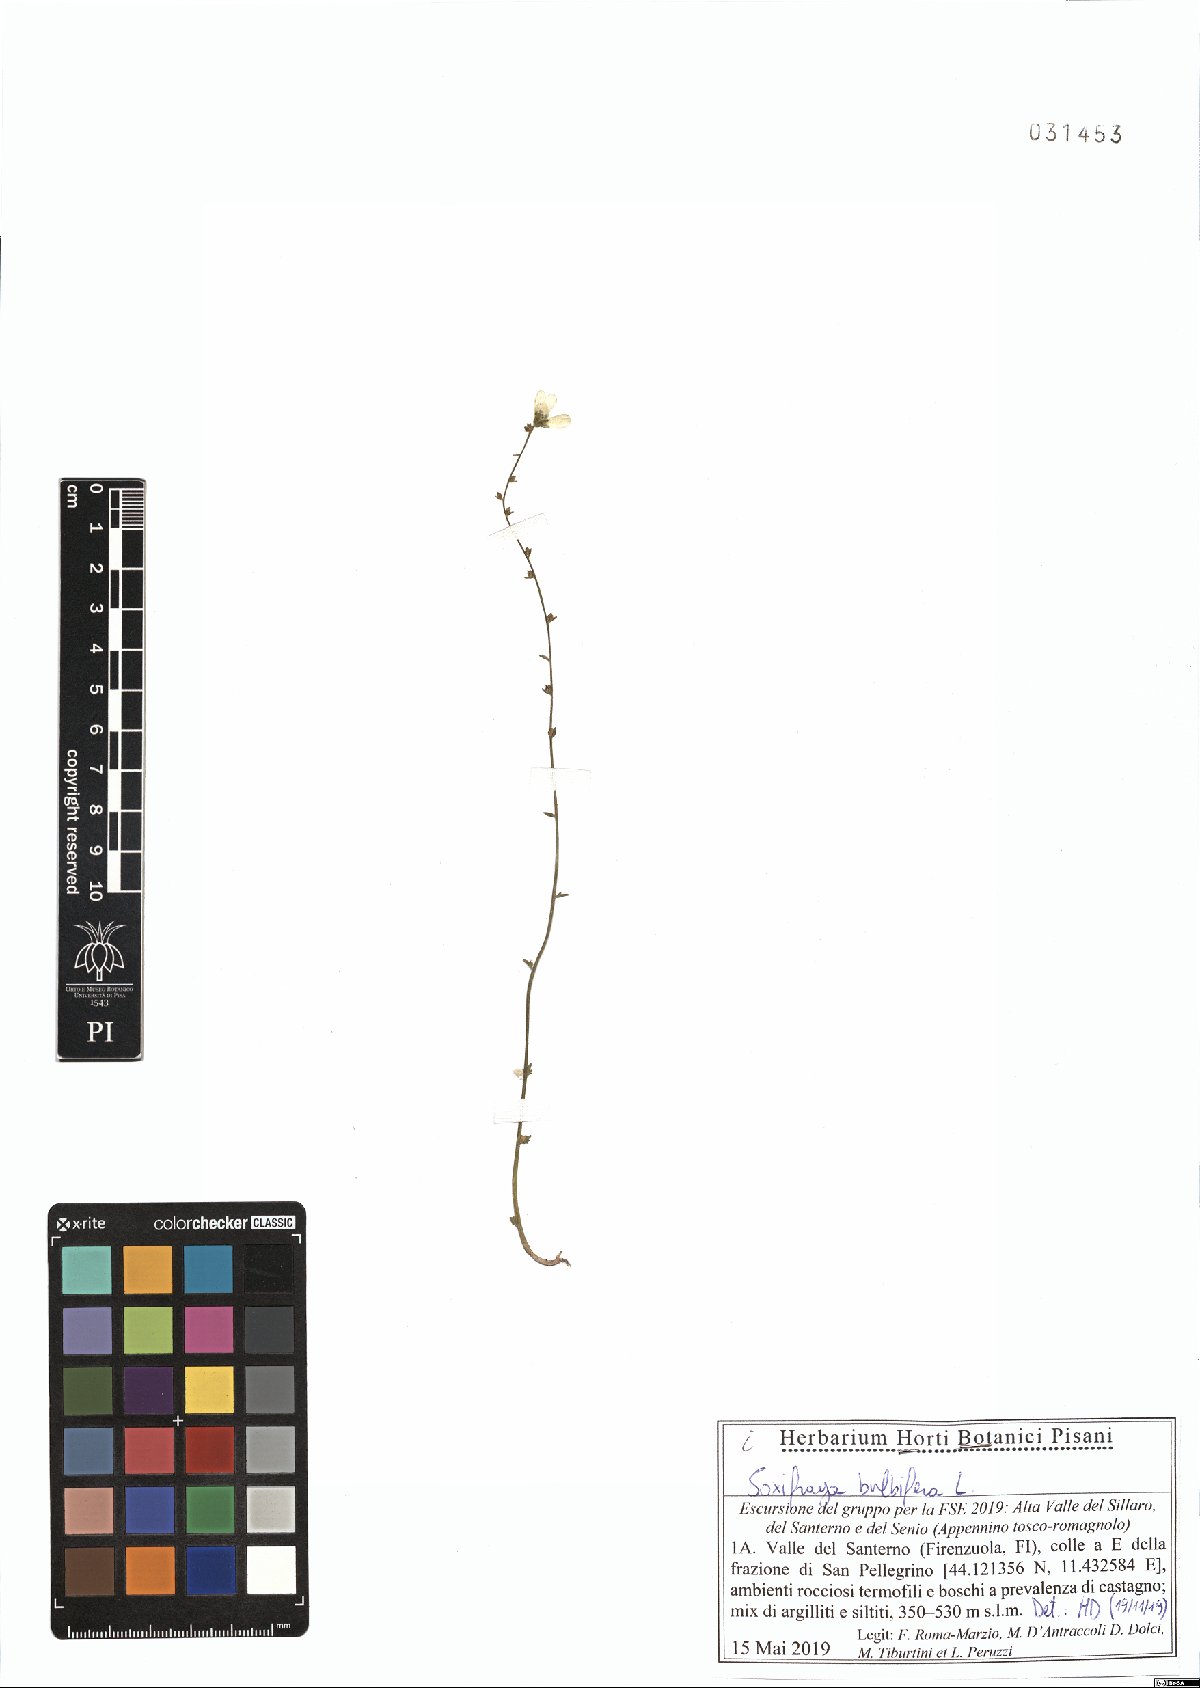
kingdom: Plantae
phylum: Tracheophyta
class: Magnoliopsida
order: Saxifragales
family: Saxifragaceae
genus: Saxifraga
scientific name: Saxifraga bulbifera
